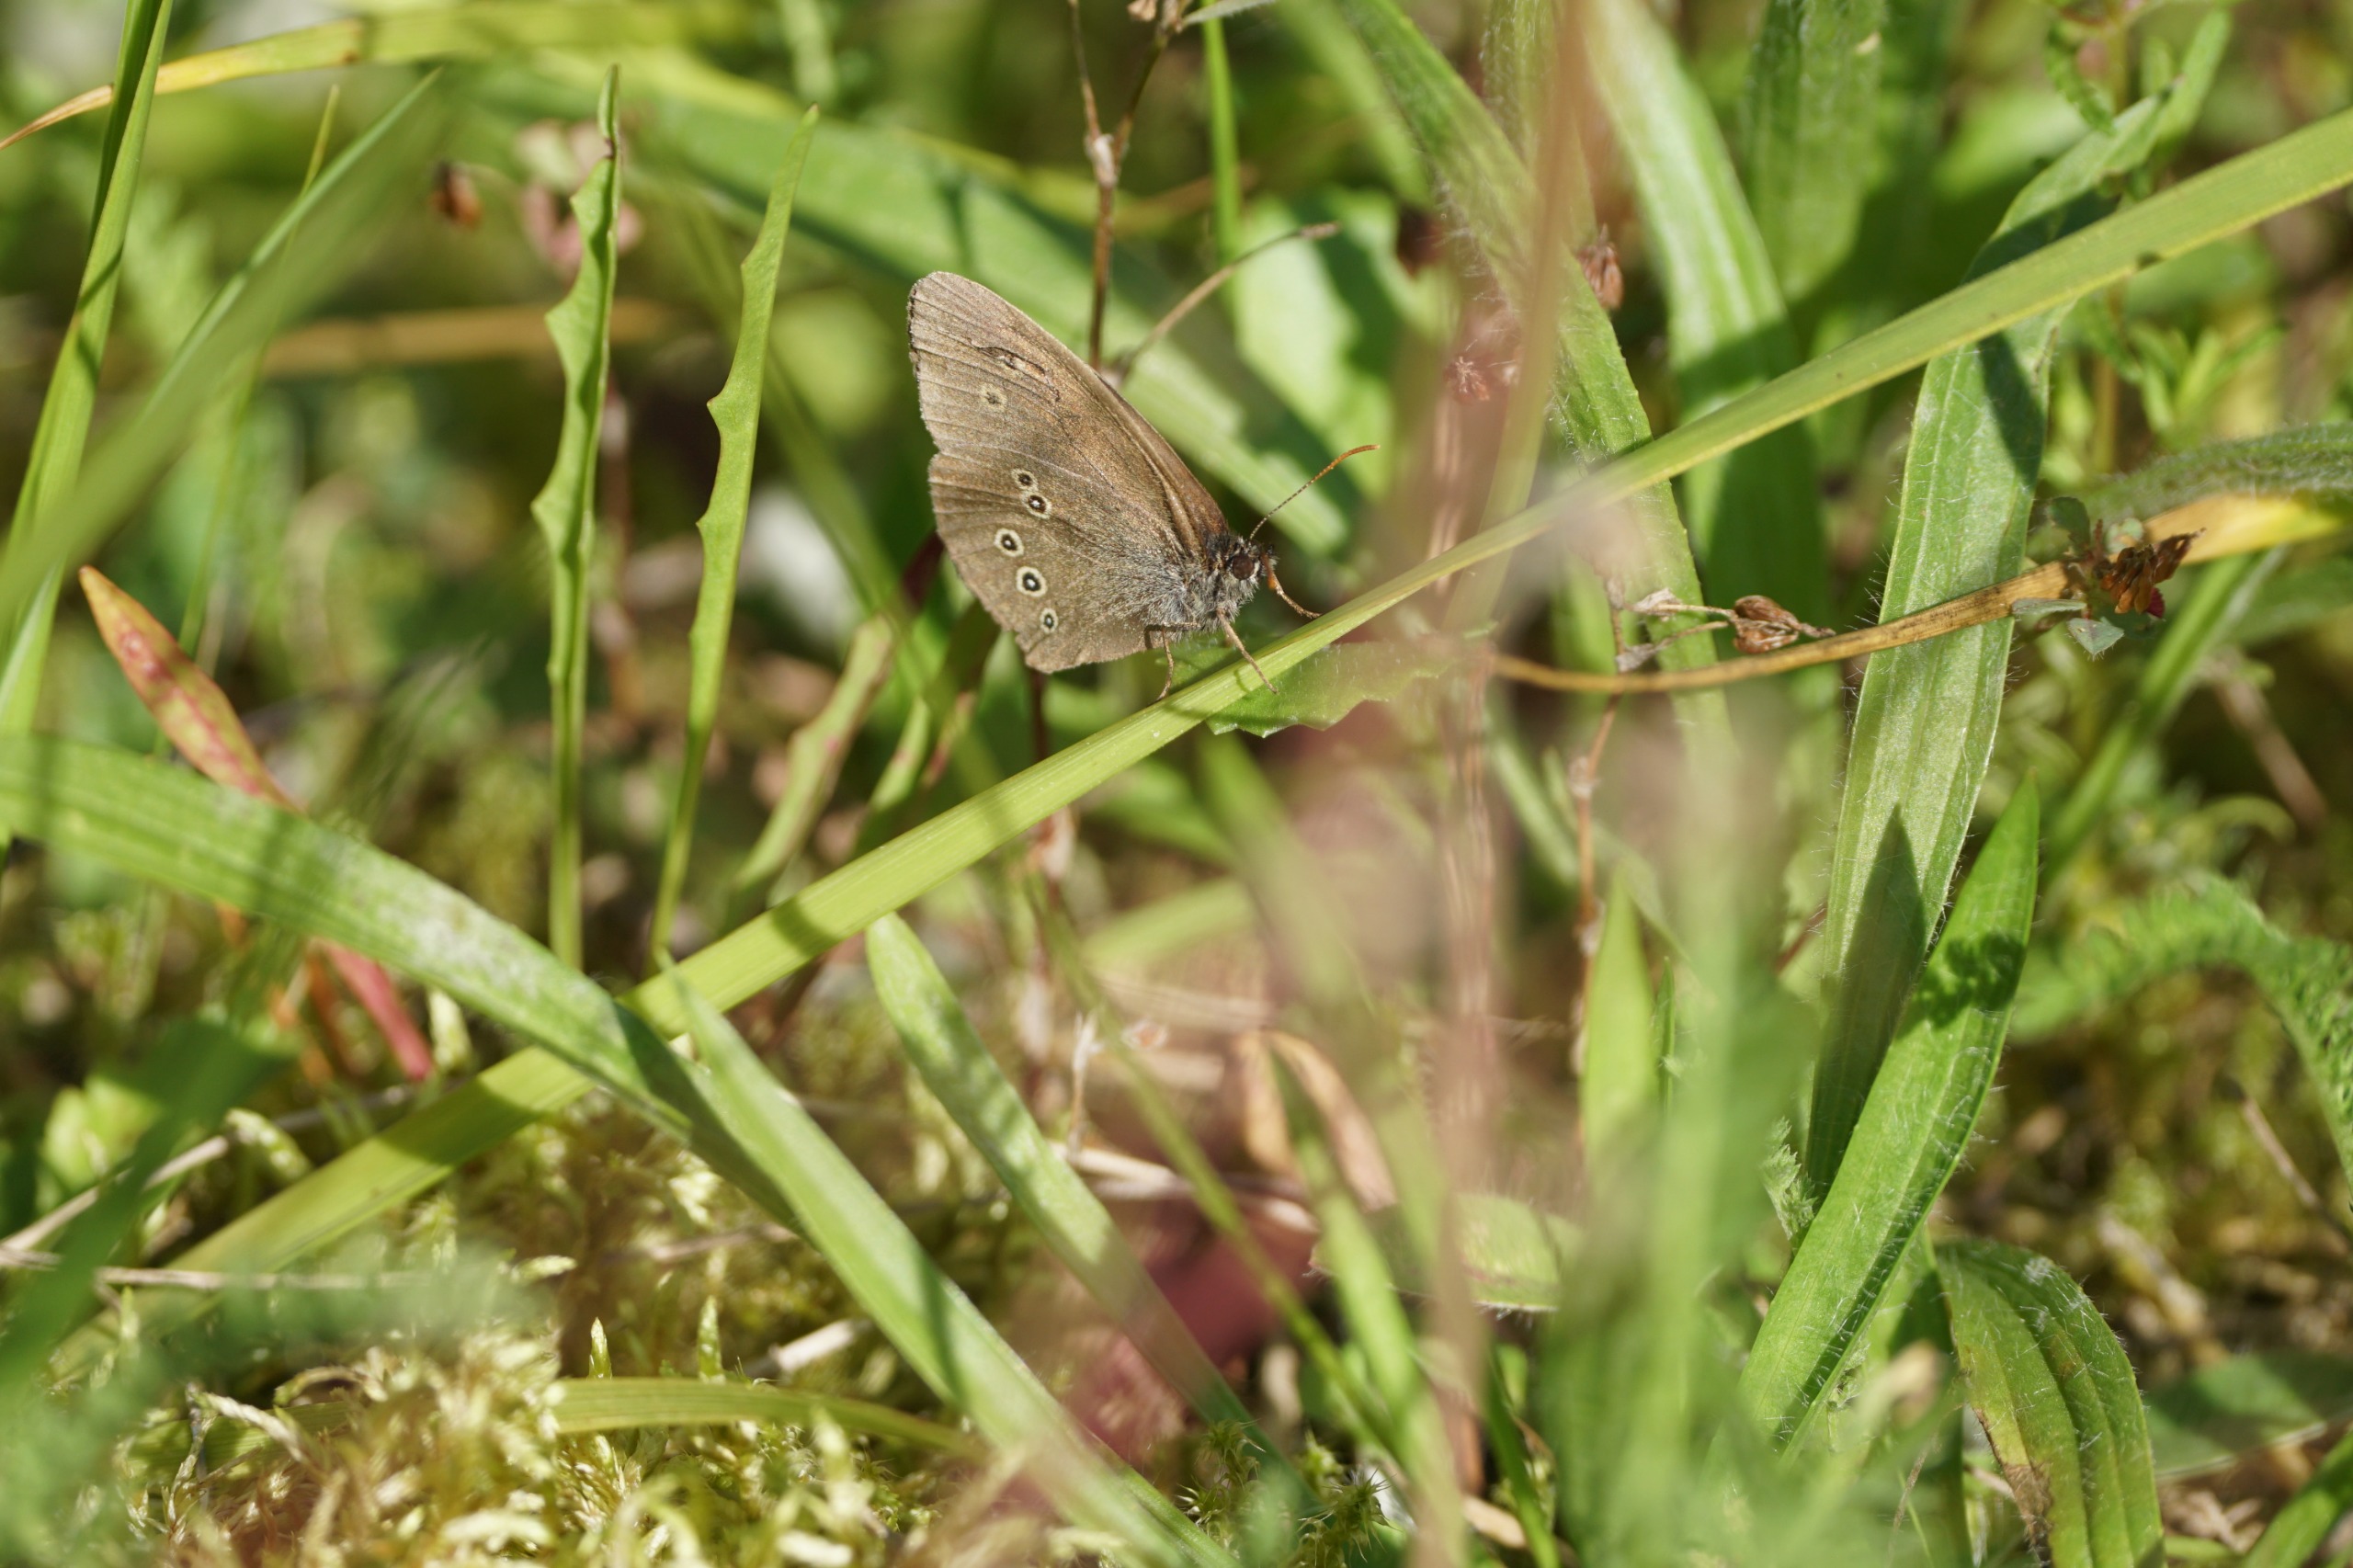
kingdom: Animalia
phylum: Arthropoda
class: Insecta
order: Lepidoptera
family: Nymphalidae
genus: Aphantopus
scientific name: Aphantopus hyperantus
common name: Engrandøje
